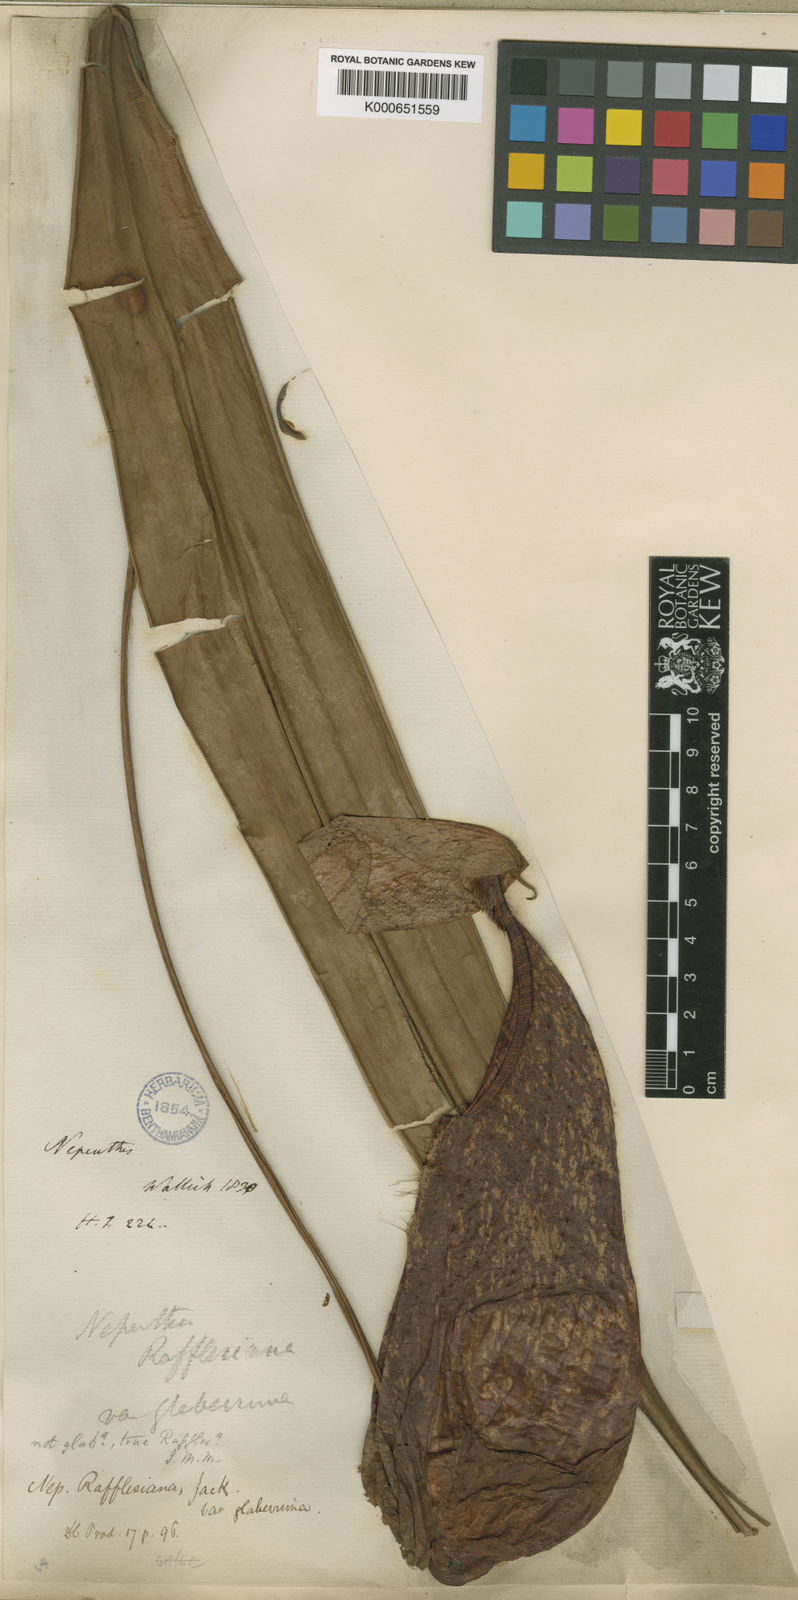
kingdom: Plantae
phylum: Tracheophyta
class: Magnoliopsida
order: Caryophyllales
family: Nepenthaceae
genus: Nepenthes
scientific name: Nepenthes rafflesiana
